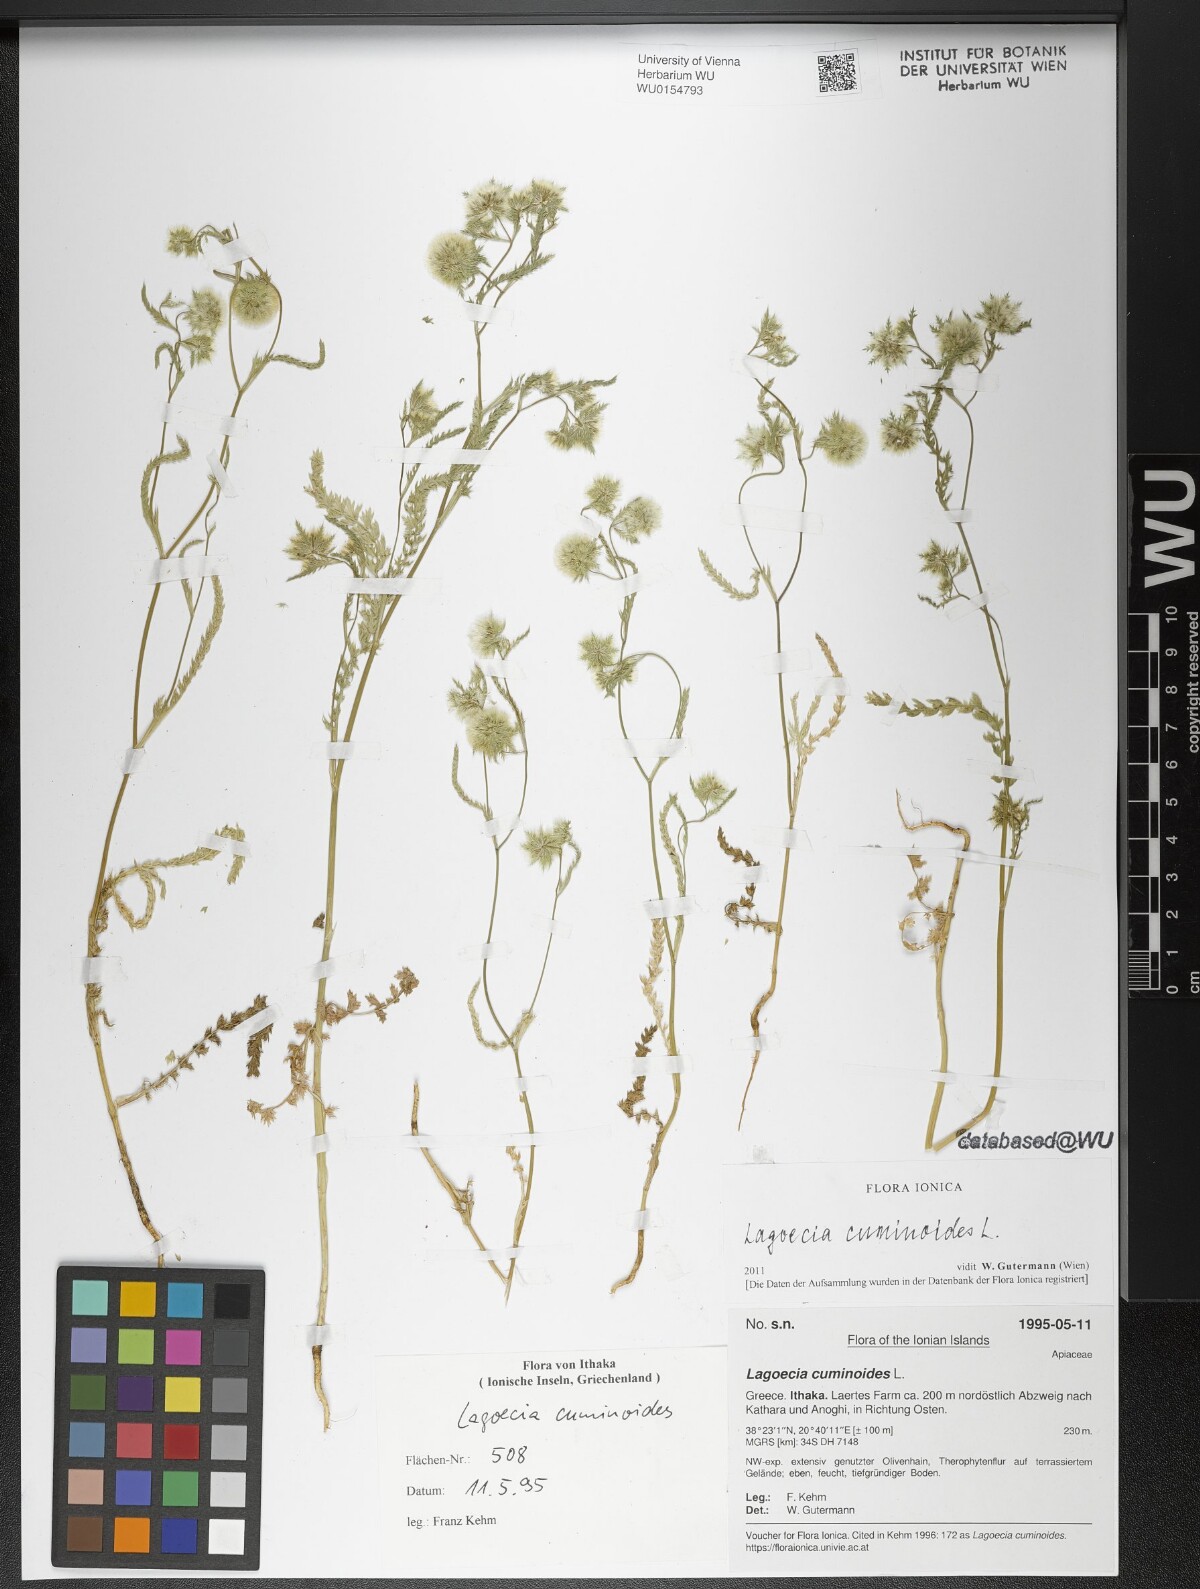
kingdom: Plantae
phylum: Tracheophyta
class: Magnoliopsida
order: Apiales
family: Apiaceae
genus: Lagoecia
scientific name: Lagoecia cuminoides
